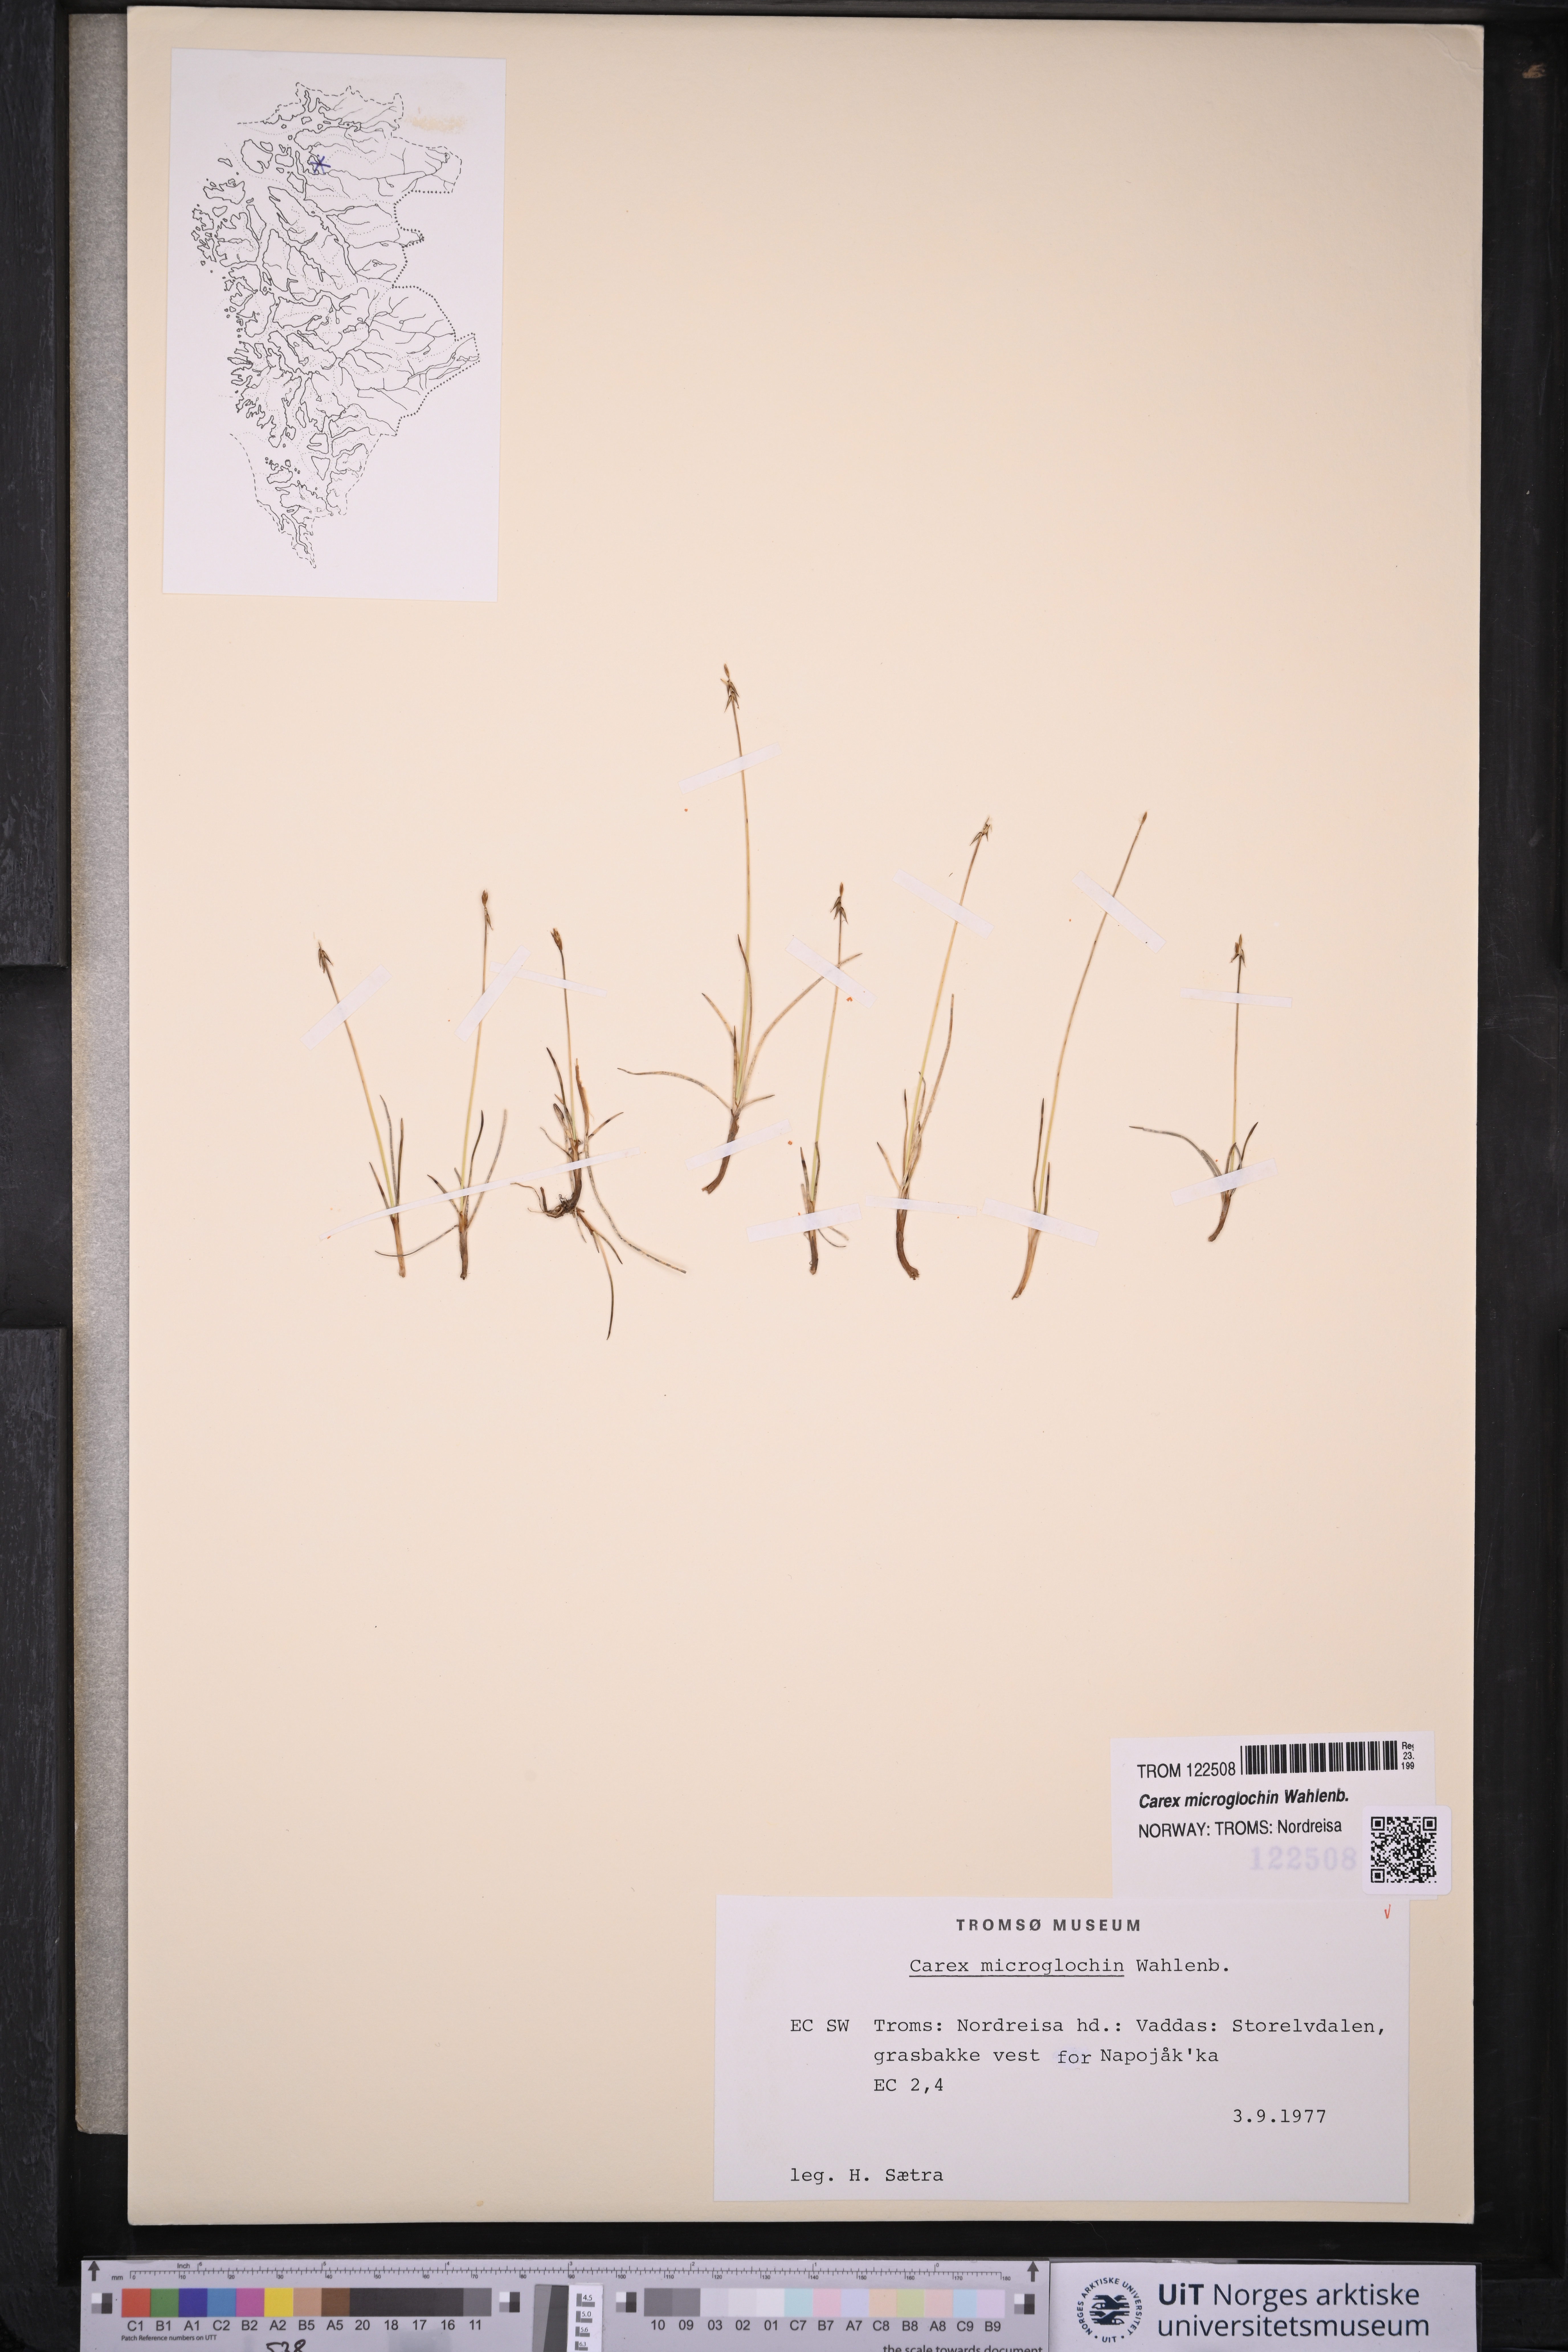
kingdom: Plantae
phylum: Tracheophyta
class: Liliopsida
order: Poales
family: Cyperaceae
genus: Carex
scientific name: Carex microglochin
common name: Bristle sedge
